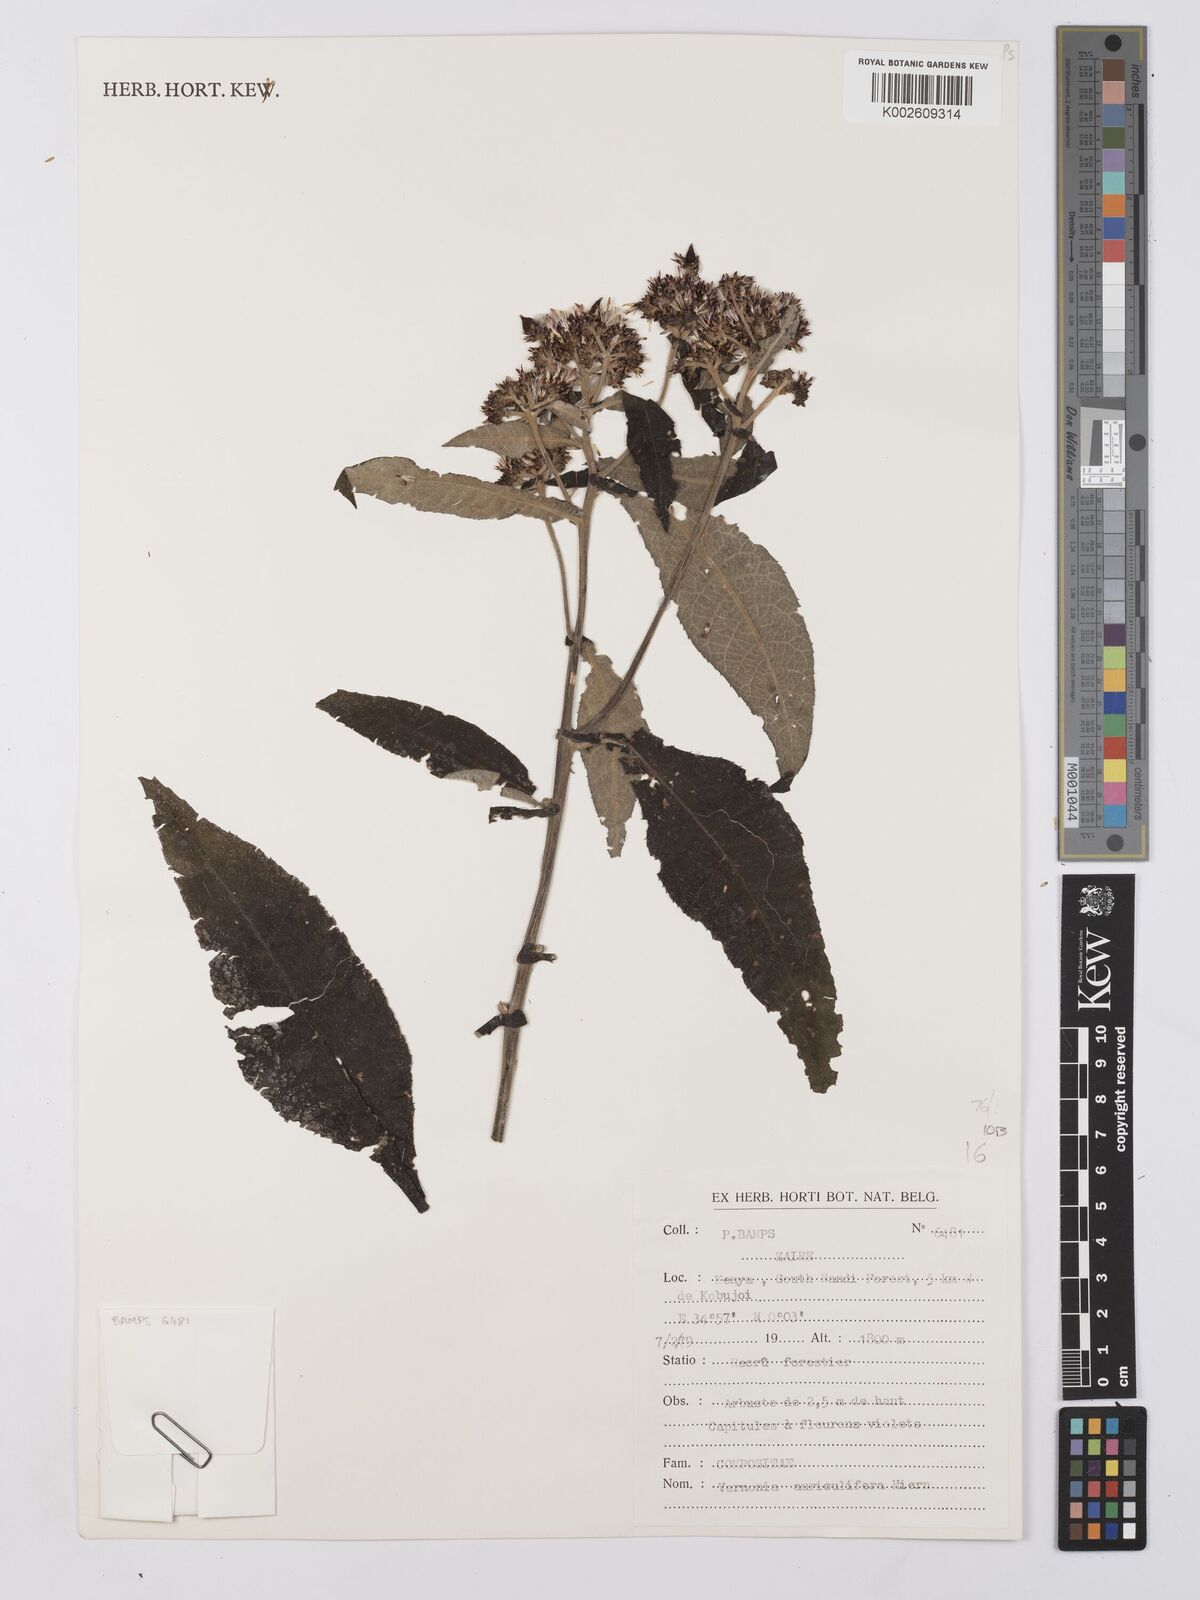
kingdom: Plantae
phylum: Tracheophyta
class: Magnoliopsida
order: Asterales
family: Asteraceae
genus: Gymnanthemum
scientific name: Gymnanthemum auriculiferum
